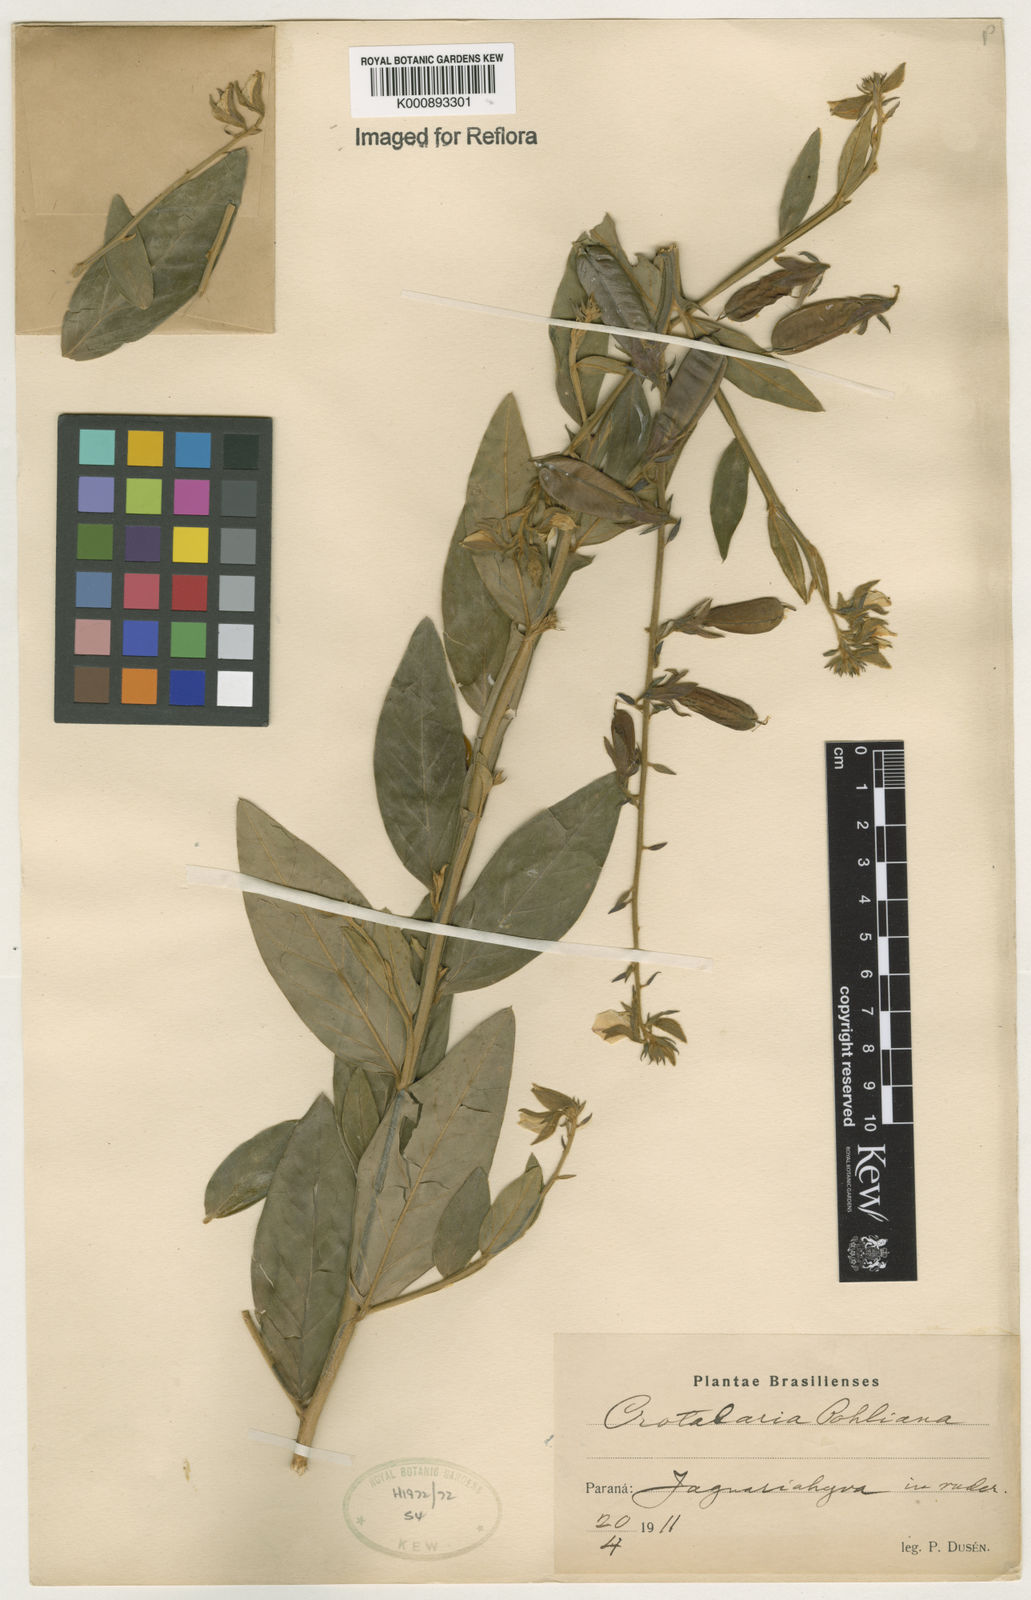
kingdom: Plantae
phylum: Tracheophyta
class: Magnoliopsida
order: Fabales
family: Fabaceae
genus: Crotalaria
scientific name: Crotalaria breviflora
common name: Short-flower crotalaria
